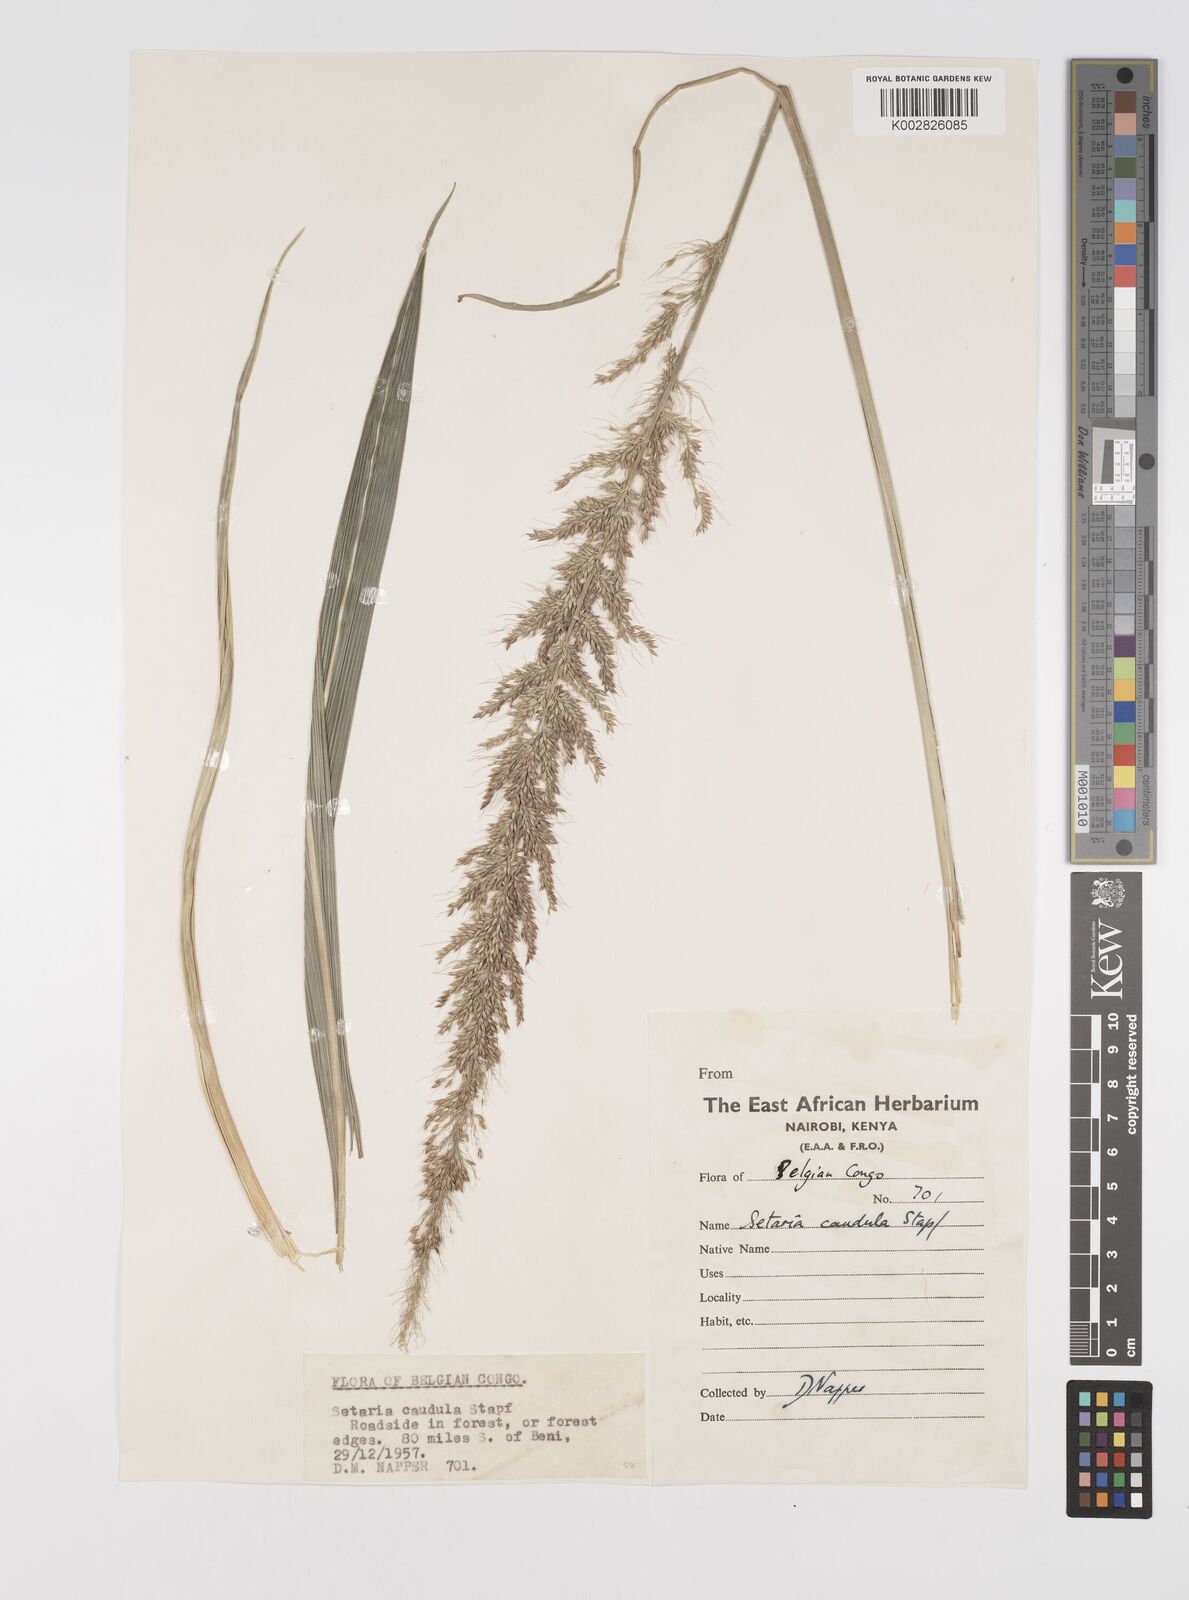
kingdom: Plantae
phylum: Tracheophyta
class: Liliopsida
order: Poales
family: Poaceae
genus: Setaria
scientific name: Setaria poiretiana
